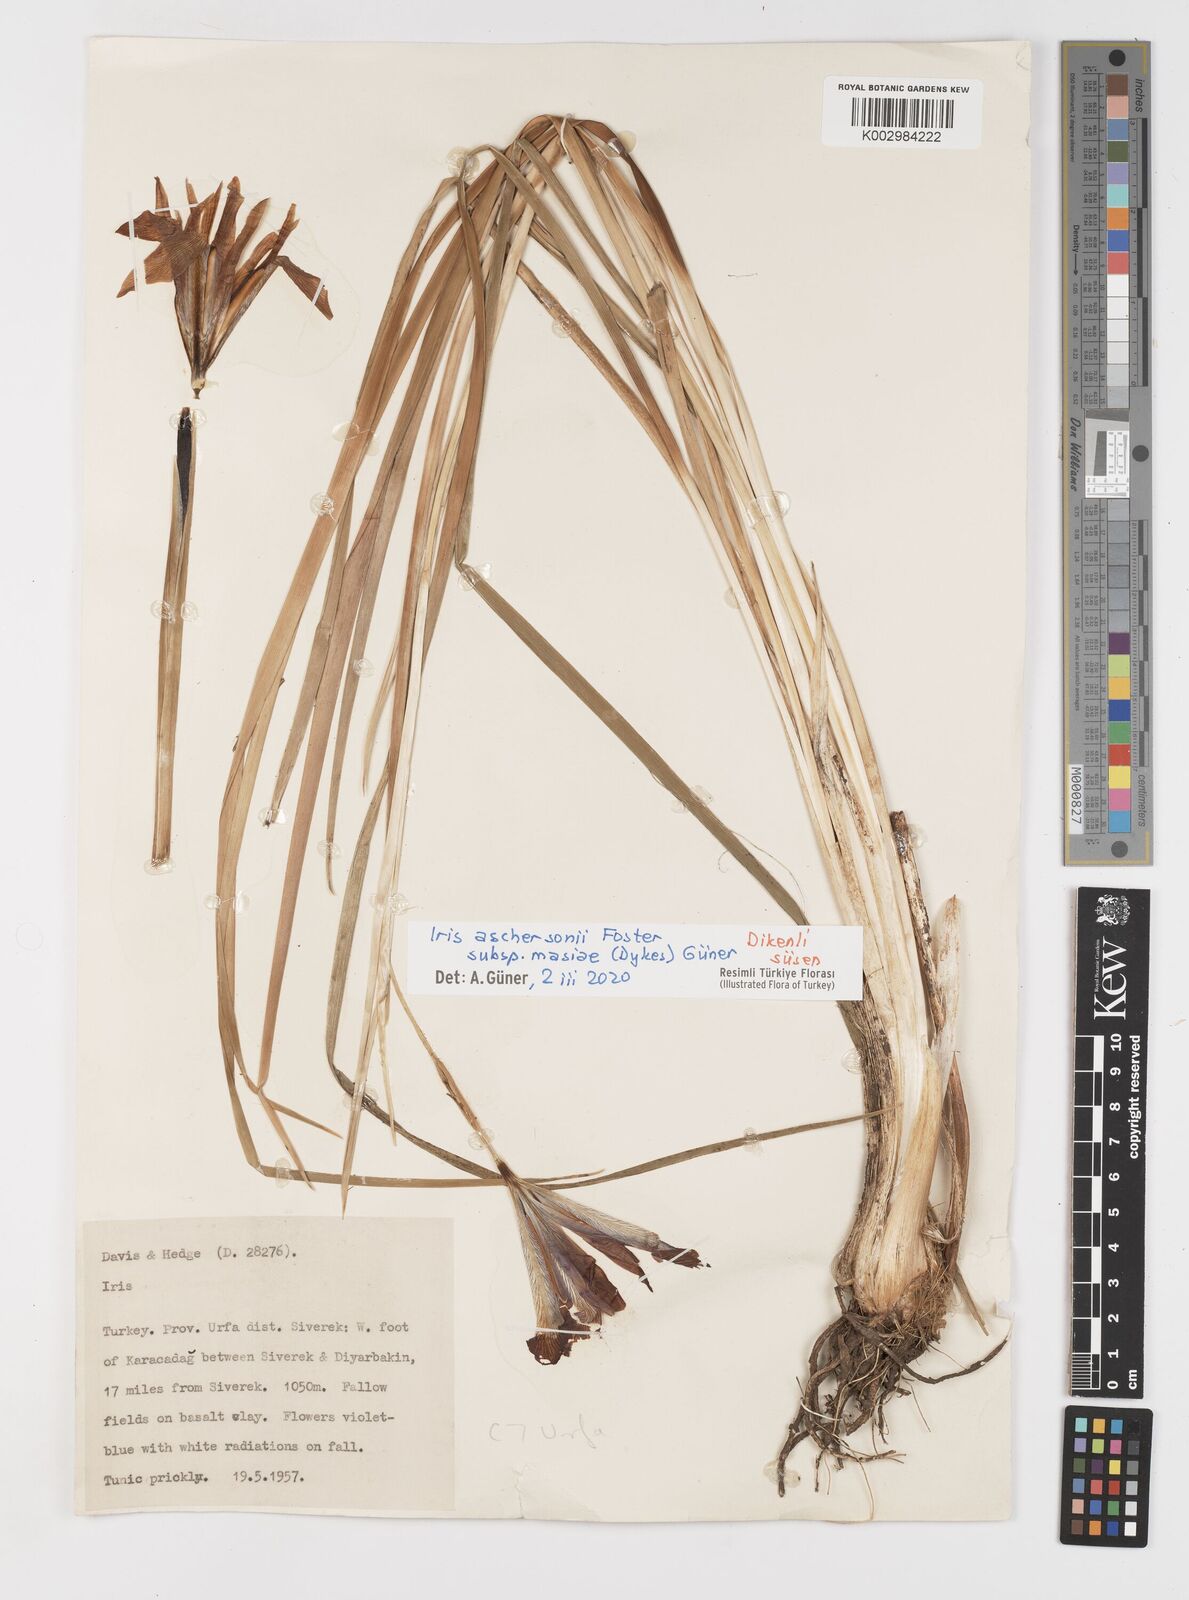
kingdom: Plantae
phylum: Tracheophyta
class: Liliopsida
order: Asparagales
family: Iridaceae
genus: Iris
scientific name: Iris grant-duffii
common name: Grant duff's iris
